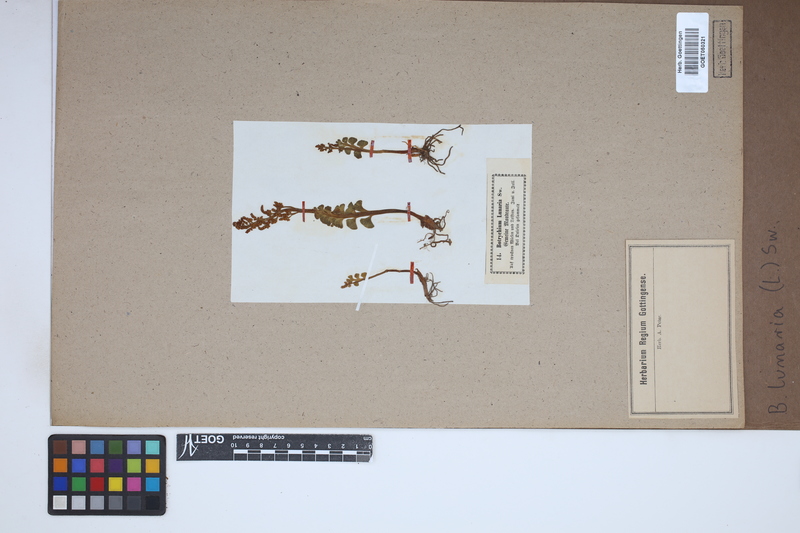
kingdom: Plantae
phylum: Tracheophyta
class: Polypodiopsida
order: Ophioglossales
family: Ophioglossaceae
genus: Botrychium
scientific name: Botrychium lunaria
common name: Moonwort
